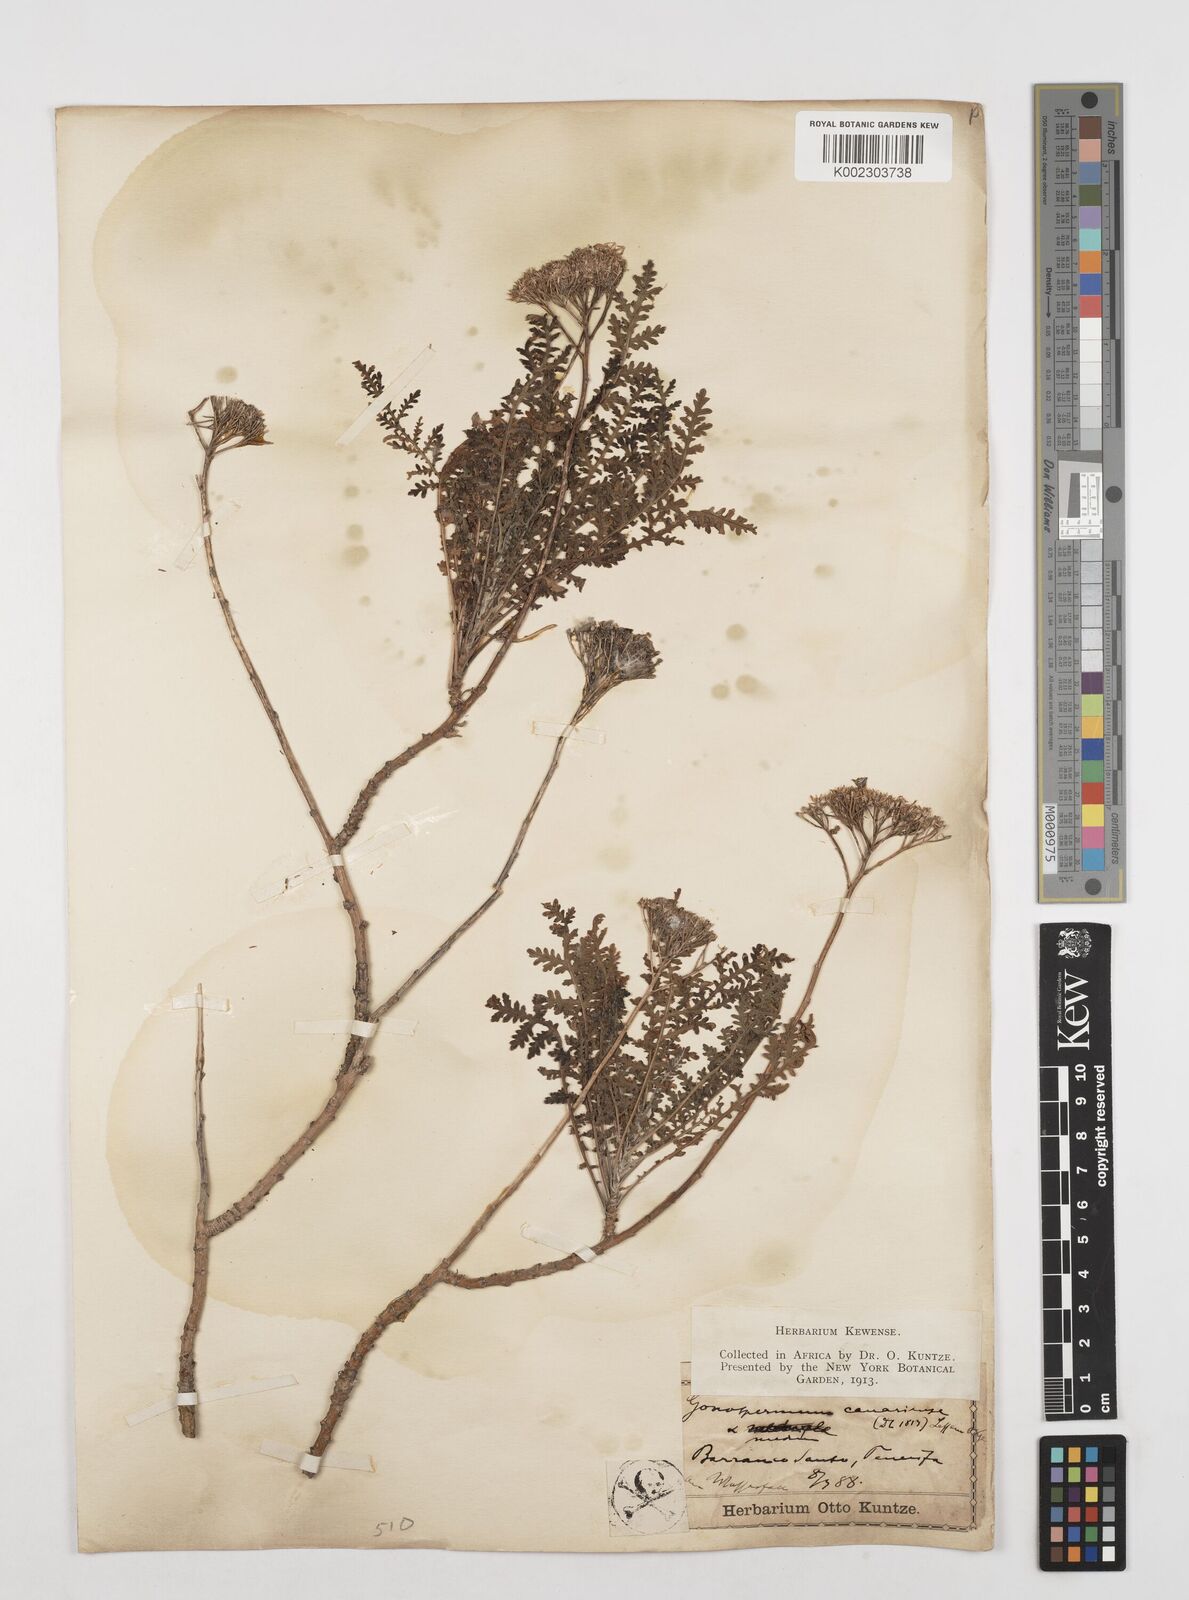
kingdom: Plantae
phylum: Tracheophyta
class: Magnoliopsida
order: Asterales
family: Asteraceae
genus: Gonospermum
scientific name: Gonospermum fruticosum
